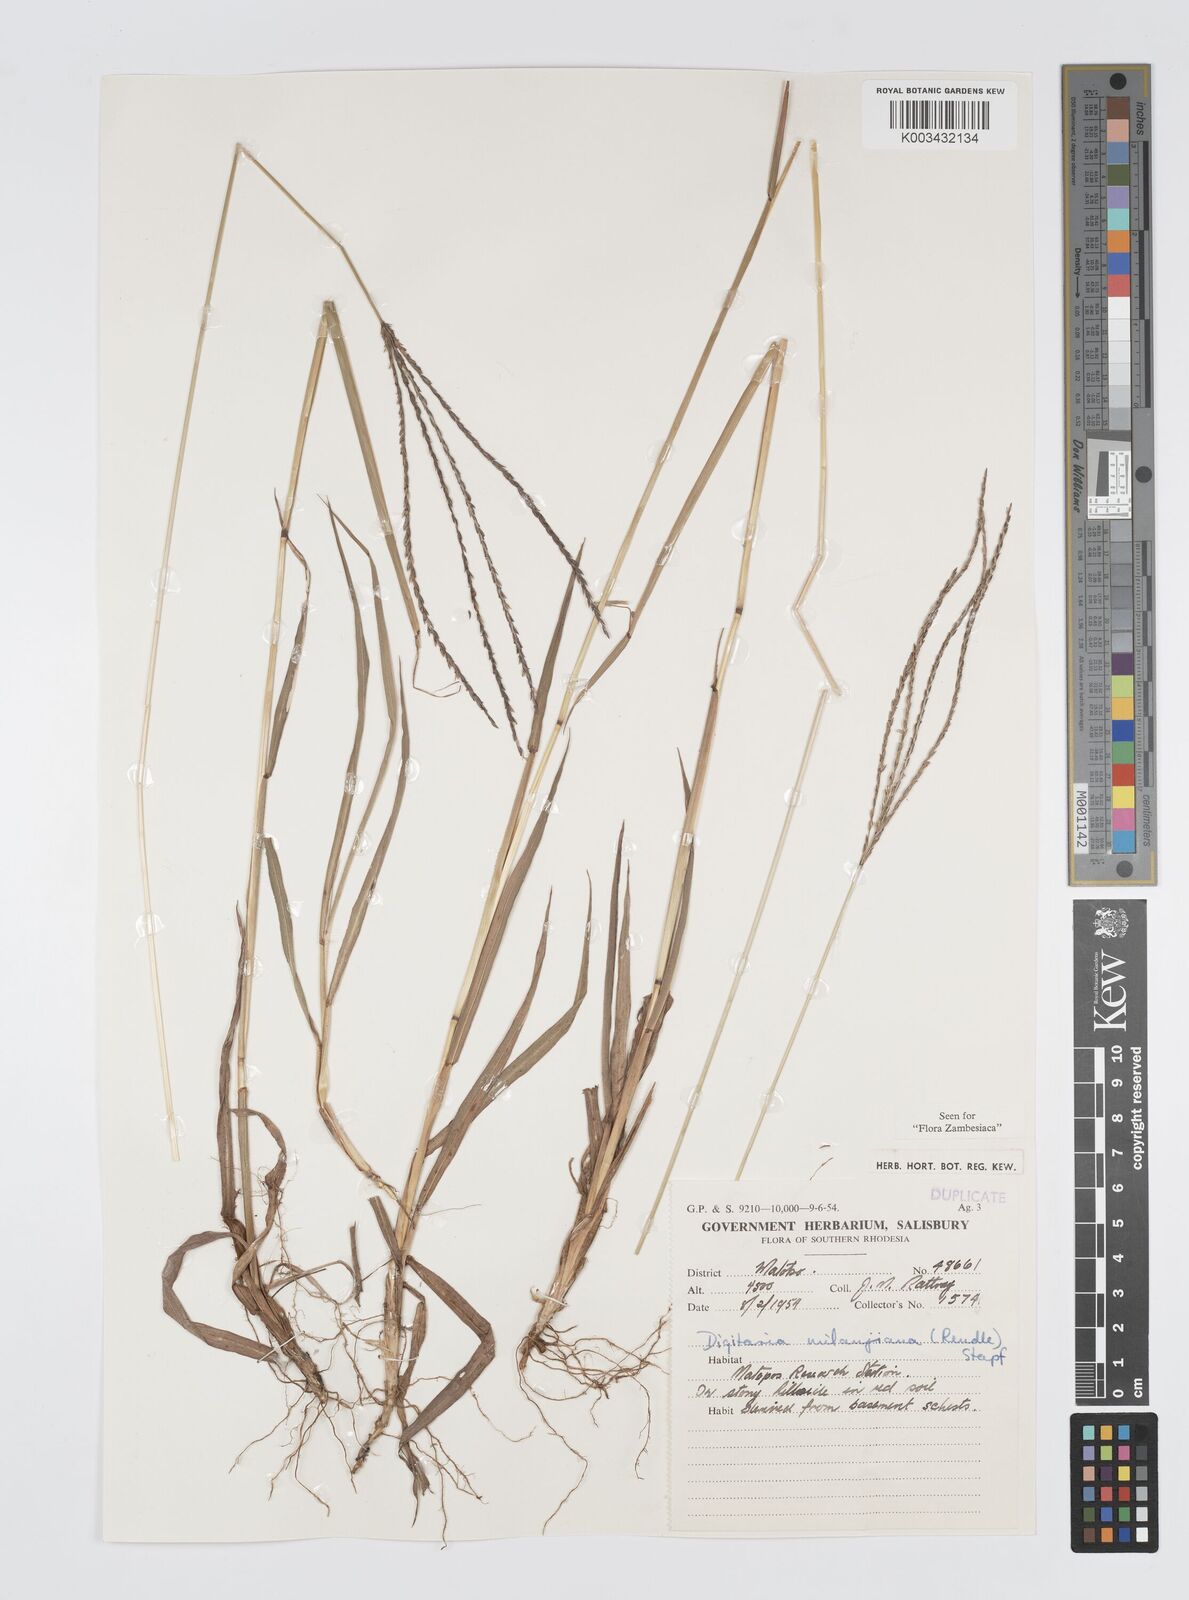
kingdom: Plantae
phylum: Tracheophyta
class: Liliopsida
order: Poales
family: Poaceae
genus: Digitaria
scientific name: Digitaria milanjiana
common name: Madagascar crabgrass
